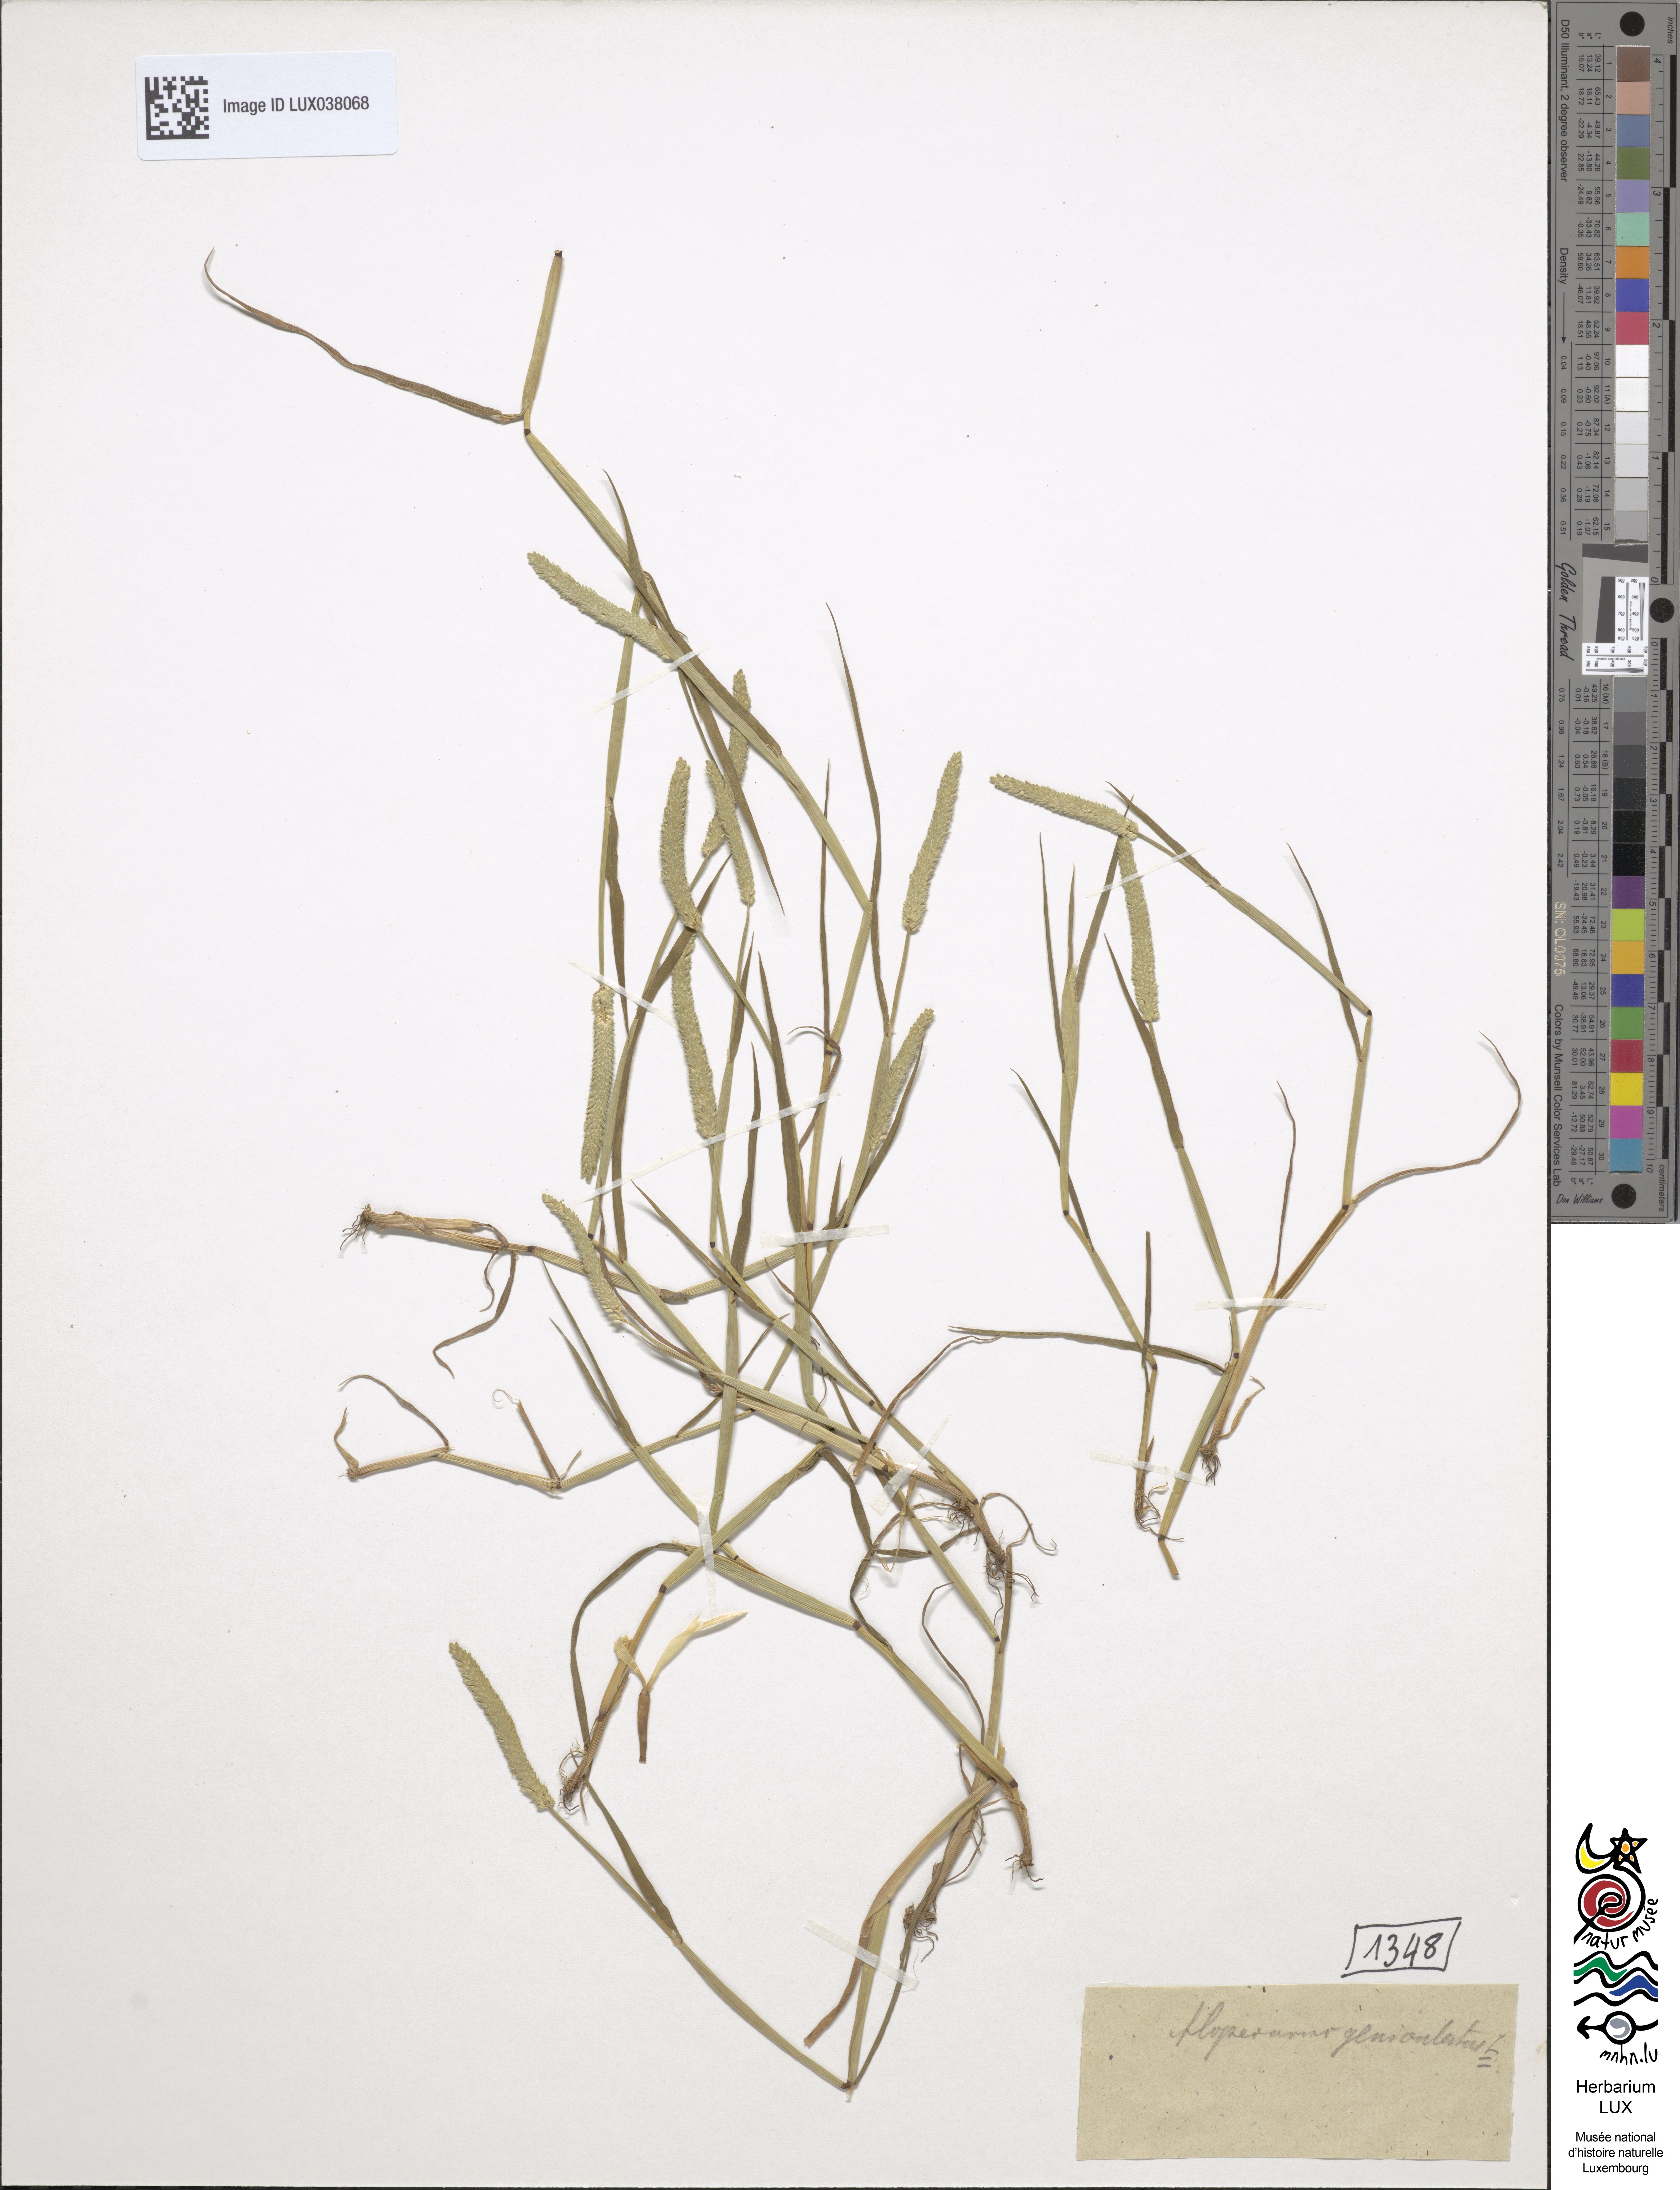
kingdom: Plantae
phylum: Tracheophyta
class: Liliopsida
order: Poales
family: Poaceae
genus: Alopecurus
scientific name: Alopecurus geniculatus
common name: Water foxtail
